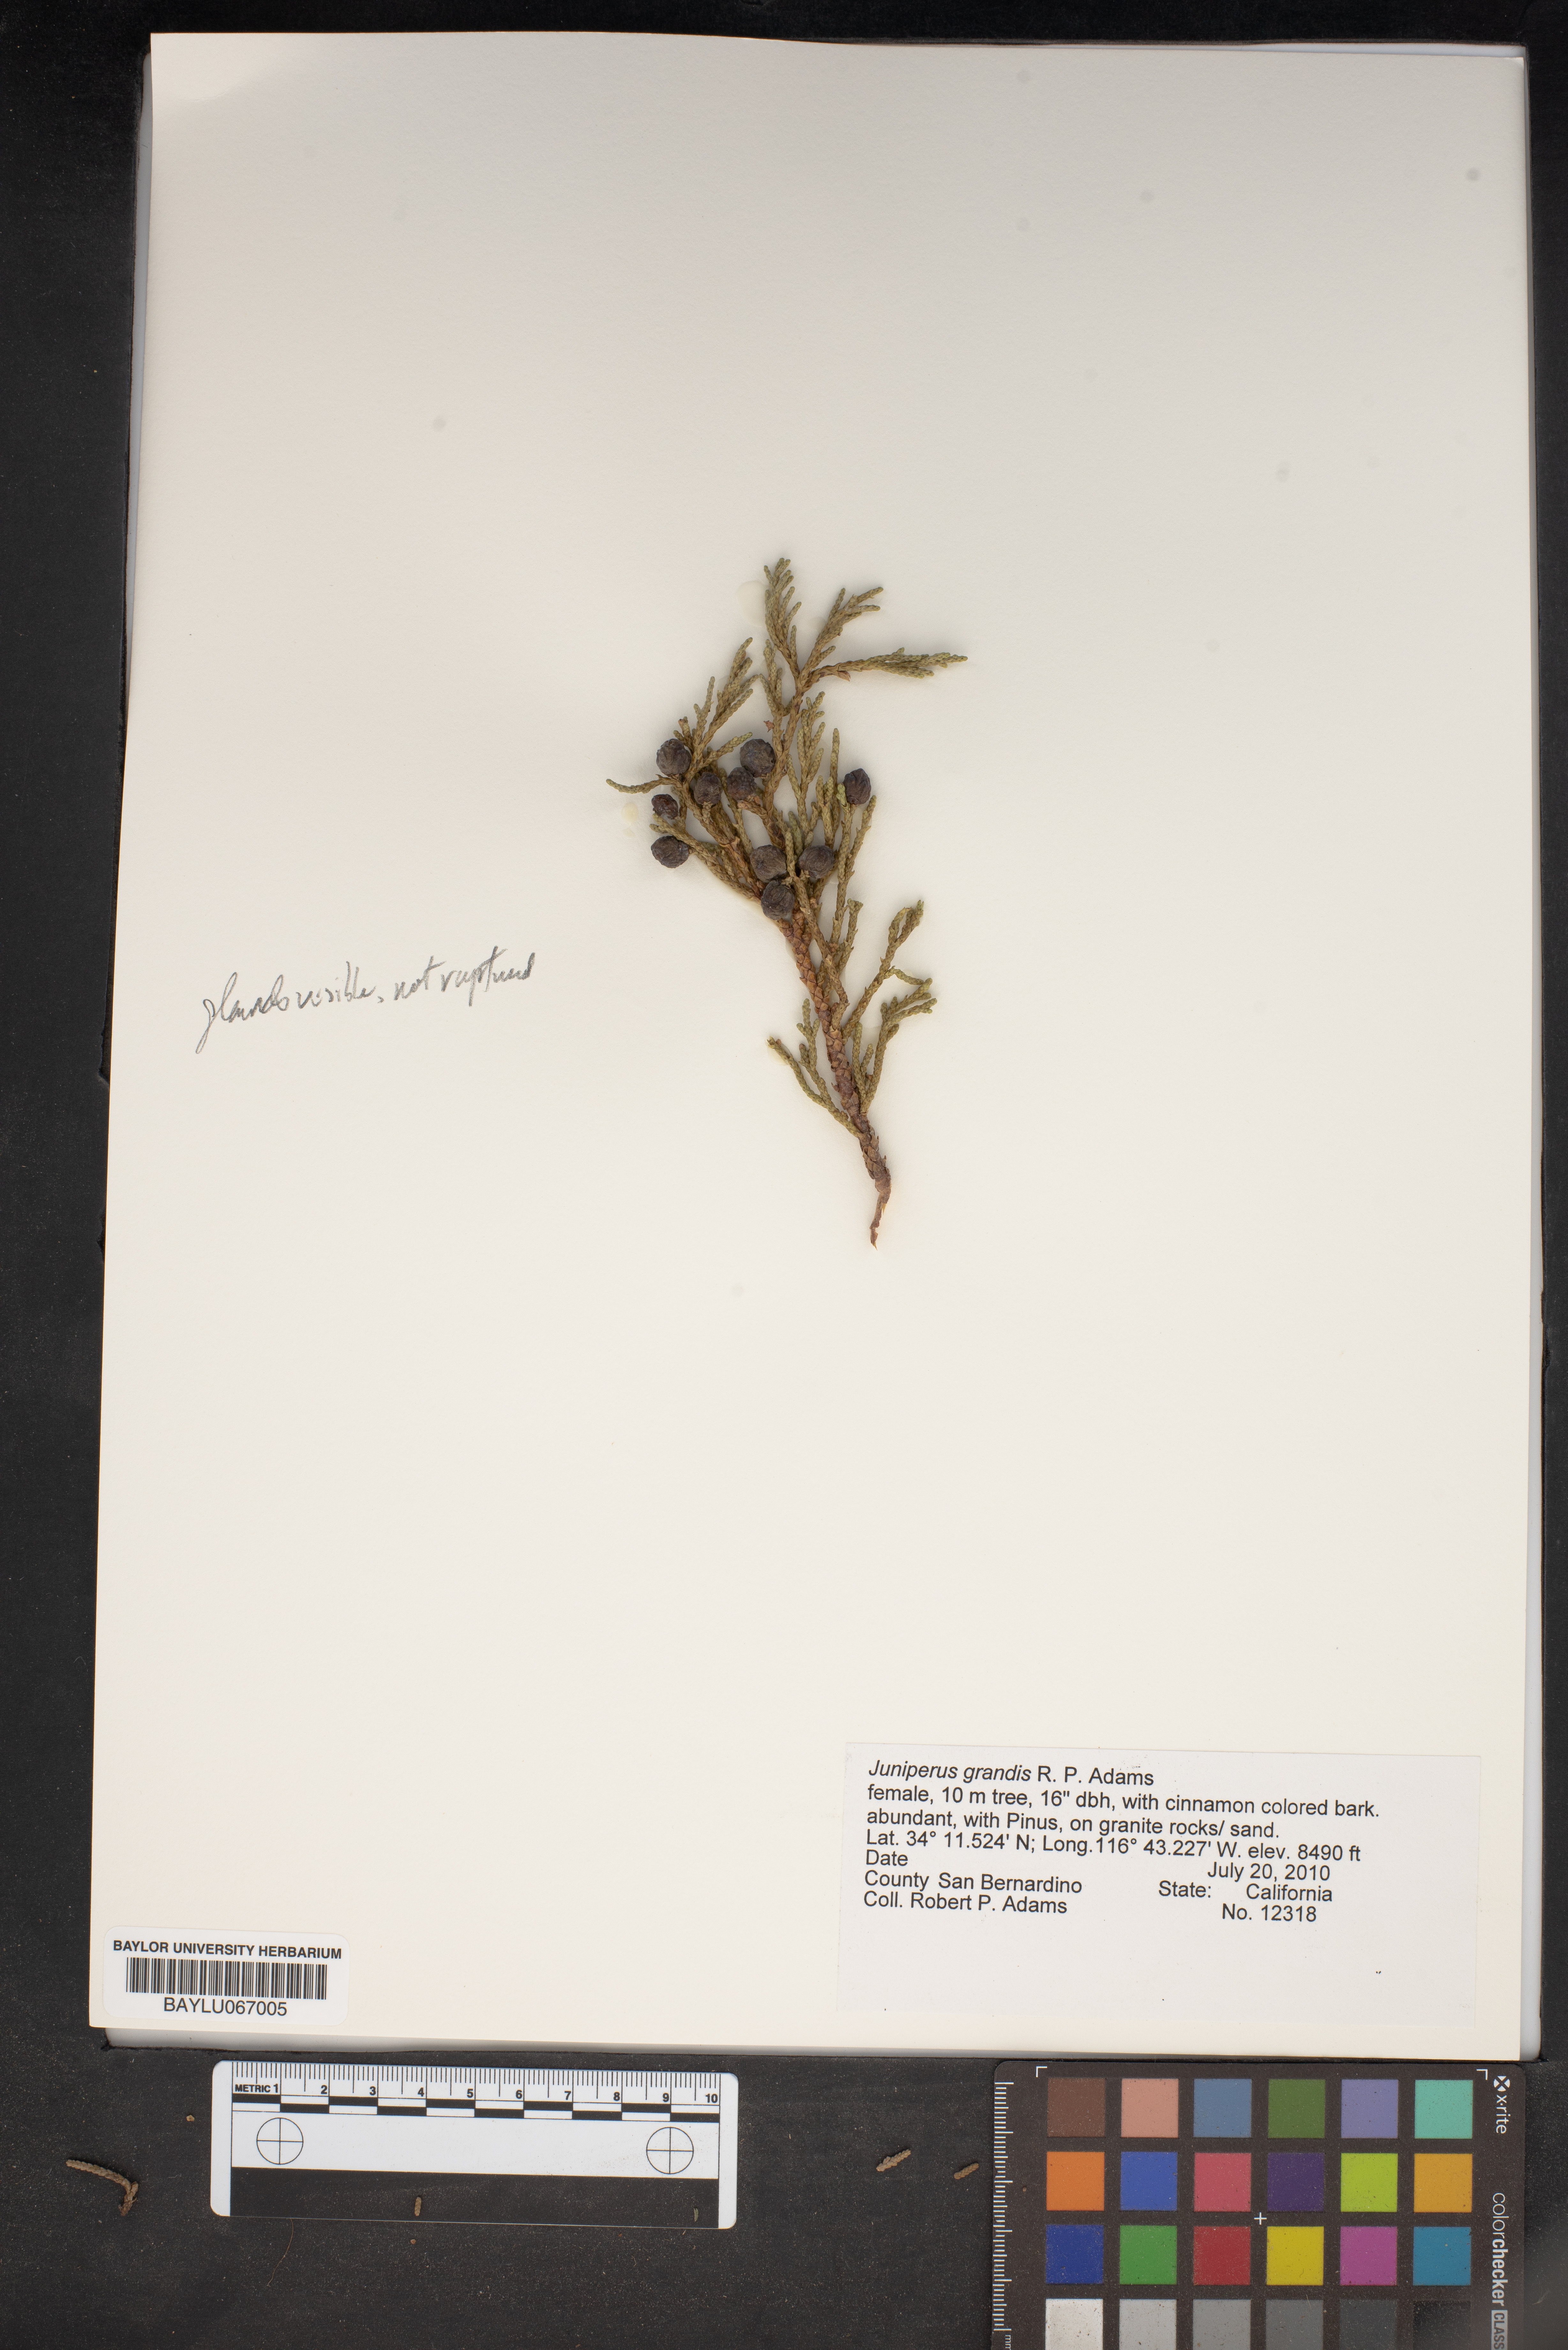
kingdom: Plantae
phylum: Tracheophyta
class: Pinopsida
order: Pinales
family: Cupressaceae
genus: Juniperus
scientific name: Juniperus occidentalis
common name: Western juniper
